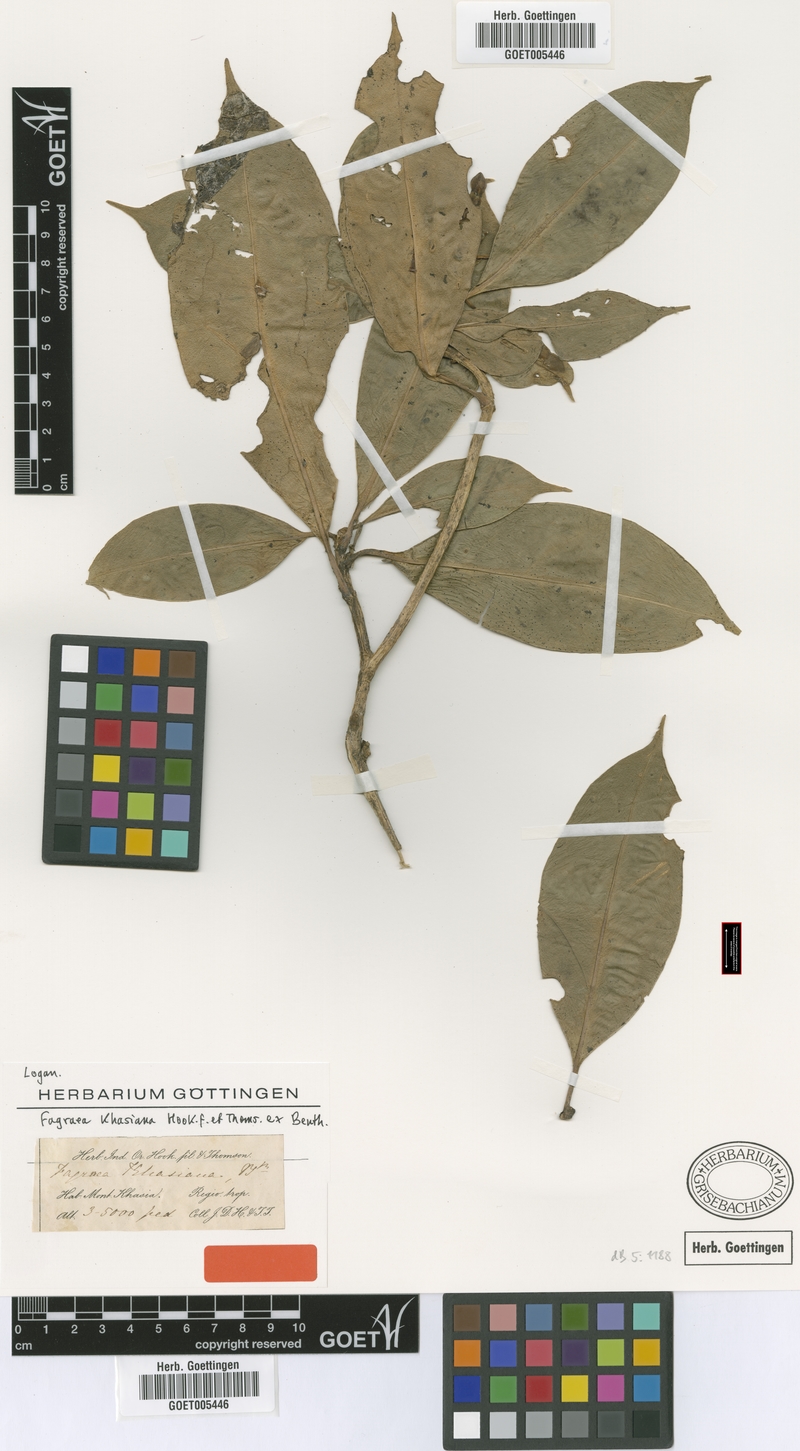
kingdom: Plantae
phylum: Tracheophyta
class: Magnoliopsida
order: Gentianales
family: Gentianaceae
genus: Fagraea
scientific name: Fagraea ceilanica
